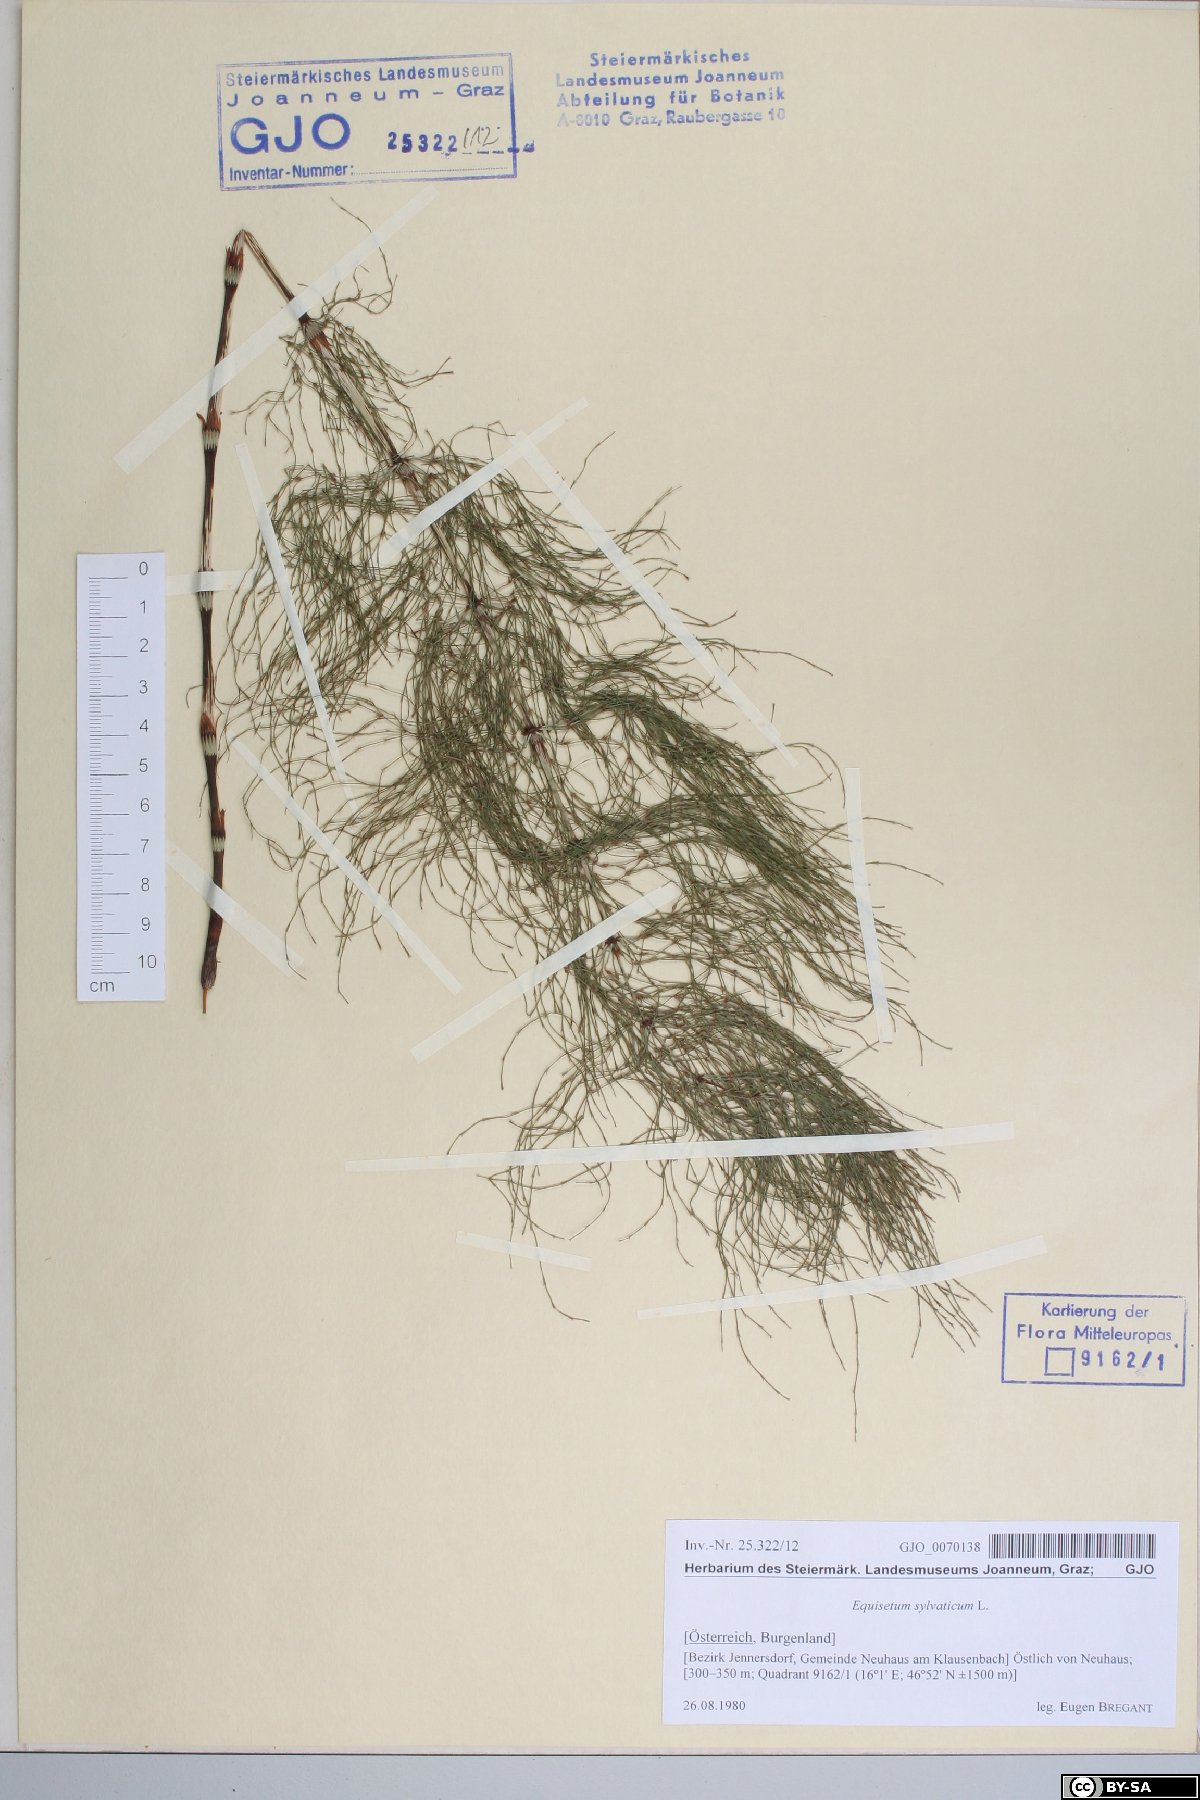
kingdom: Plantae
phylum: Tracheophyta
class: Polypodiopsida
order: Equisetales
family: Equisetaceae
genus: Equisetum
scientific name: Equisetum sylvaticum
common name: Wood horsetail
